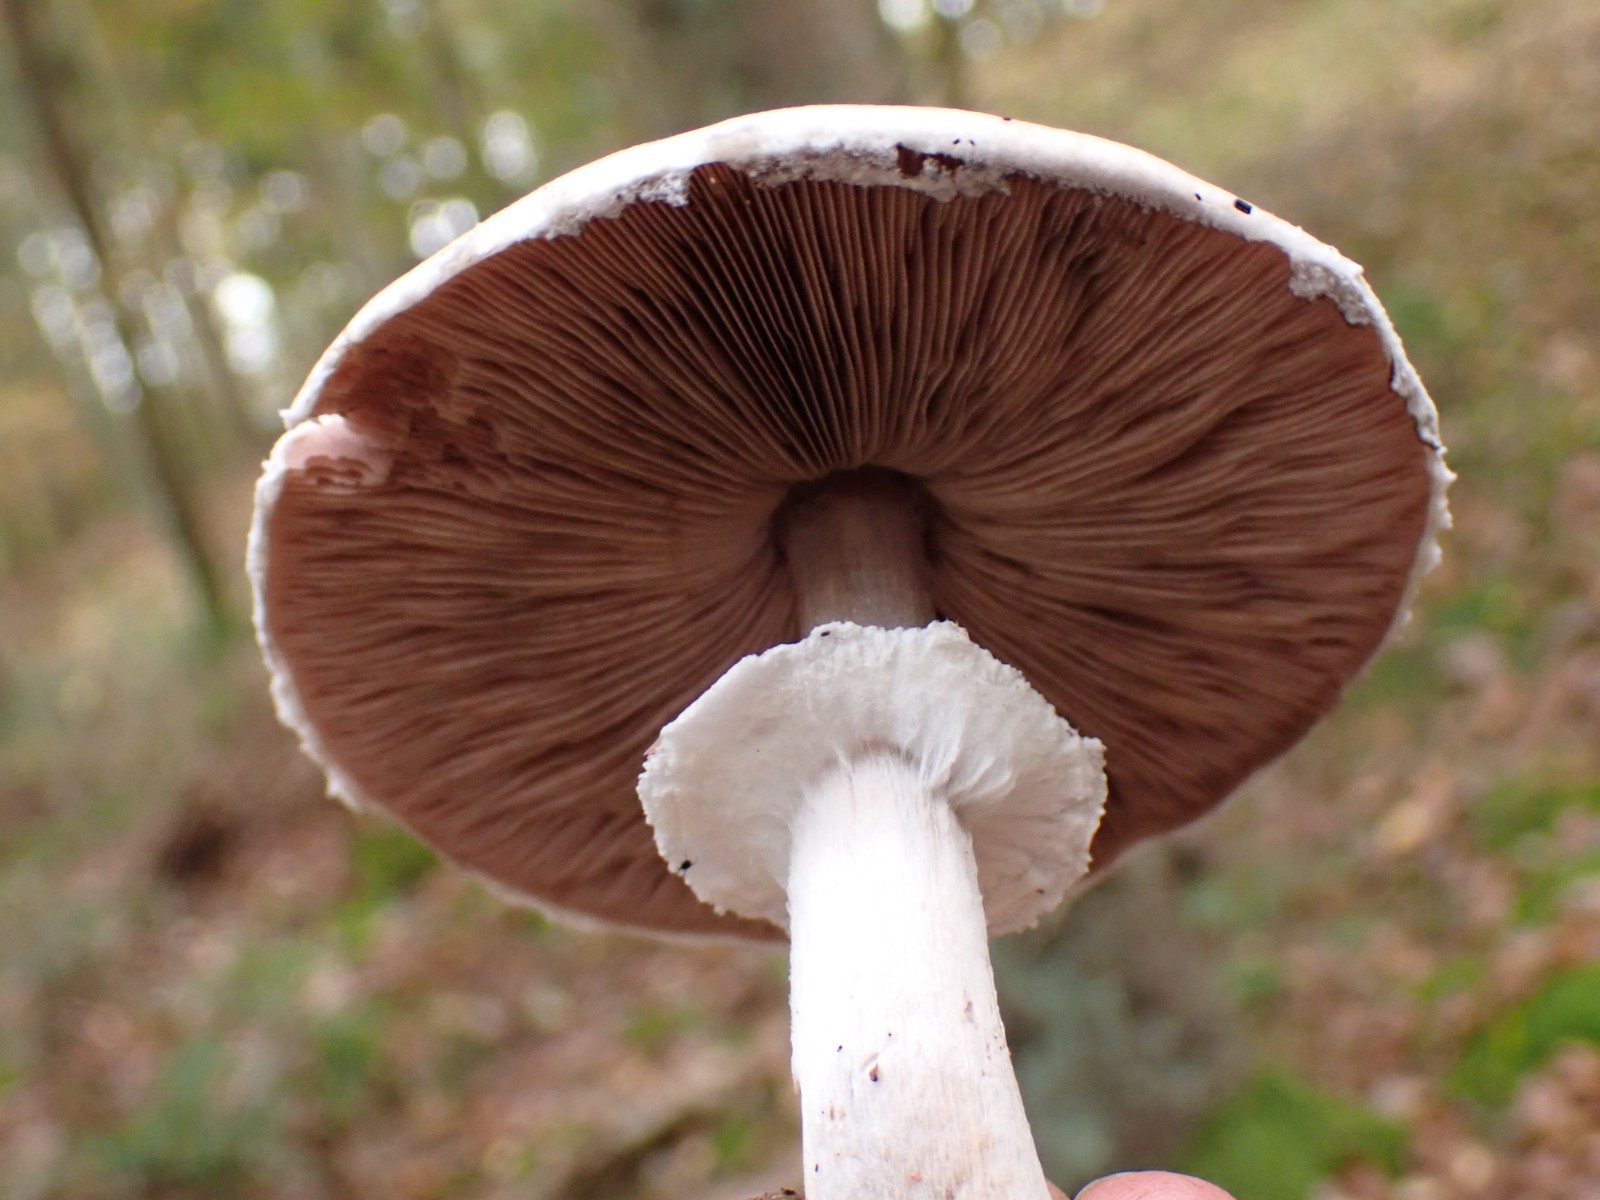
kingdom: Fungi
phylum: Basidiomycota
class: Agaricomycetes
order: Agaricales
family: Agaricaceae
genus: Agaricus
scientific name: Agaricus impudicus
